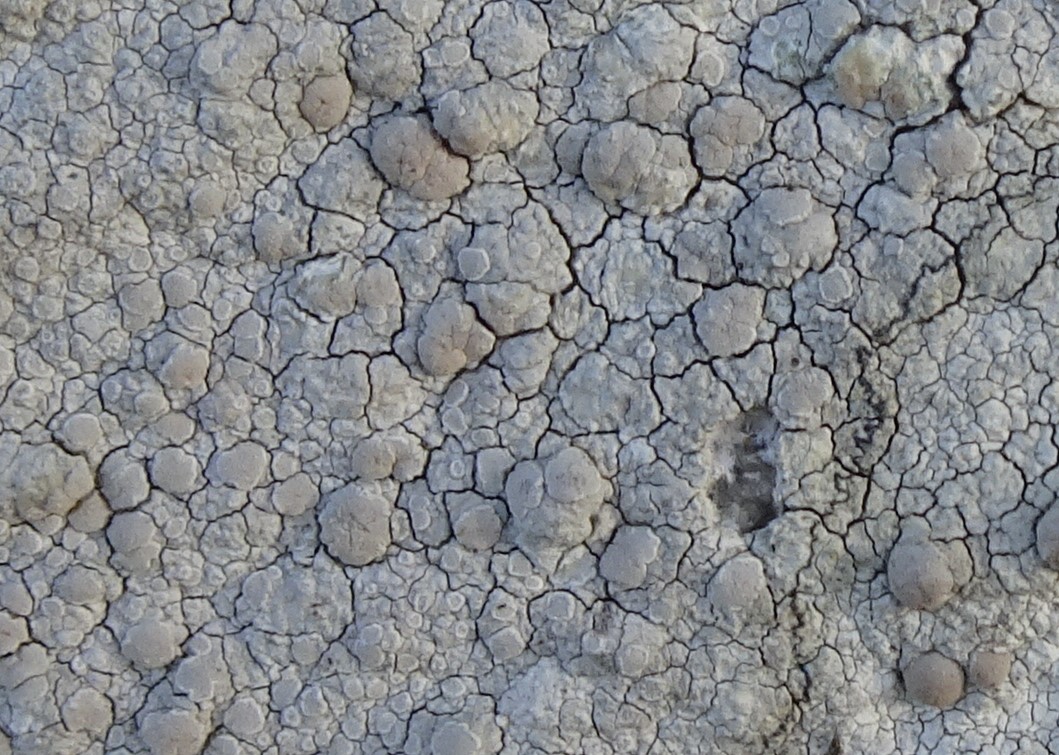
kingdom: Fungi
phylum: Ascomycota
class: Lecanoromycetes
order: Lecanorales
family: Lecanoraceae
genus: Glaucomaria
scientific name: Glaucomaria rupicola
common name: stengærde-kantskivelav
